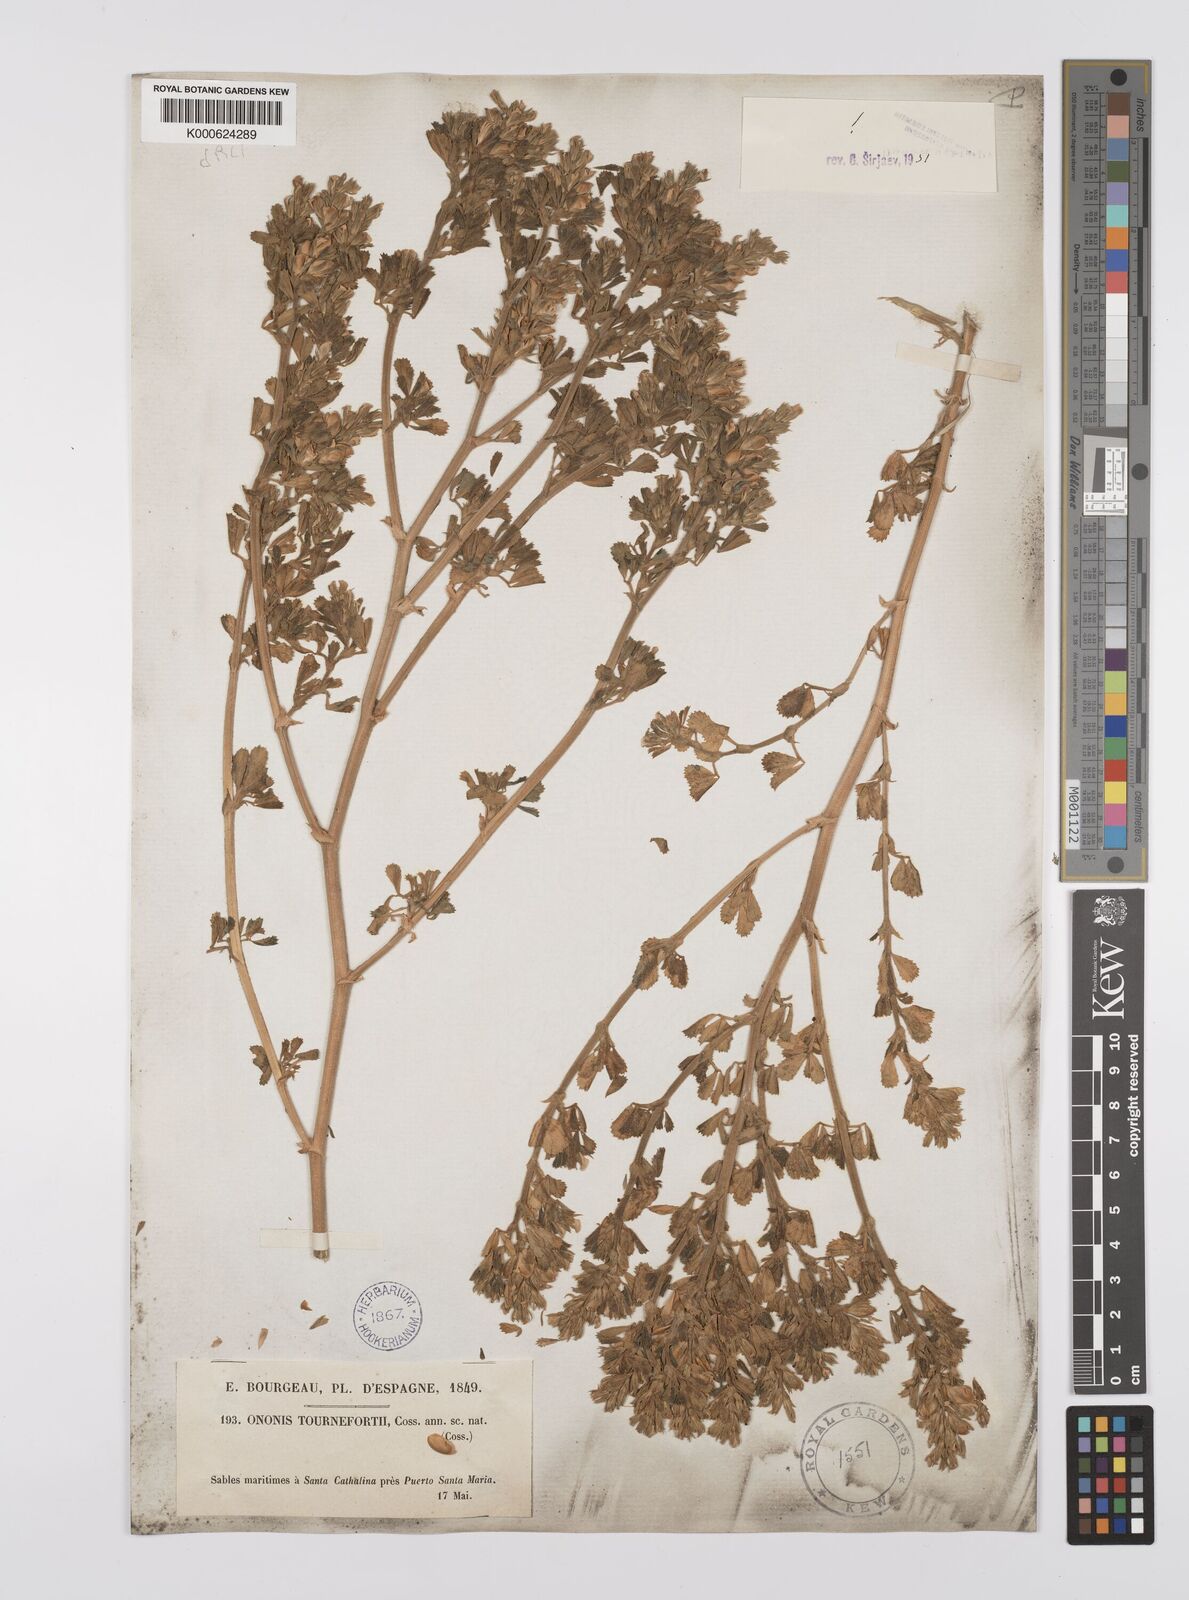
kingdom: Plantae
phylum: Tracheophyta
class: Magnoliopsida
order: Fabales
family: Fabaceae
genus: Ononis
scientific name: Ononis tournefortii
